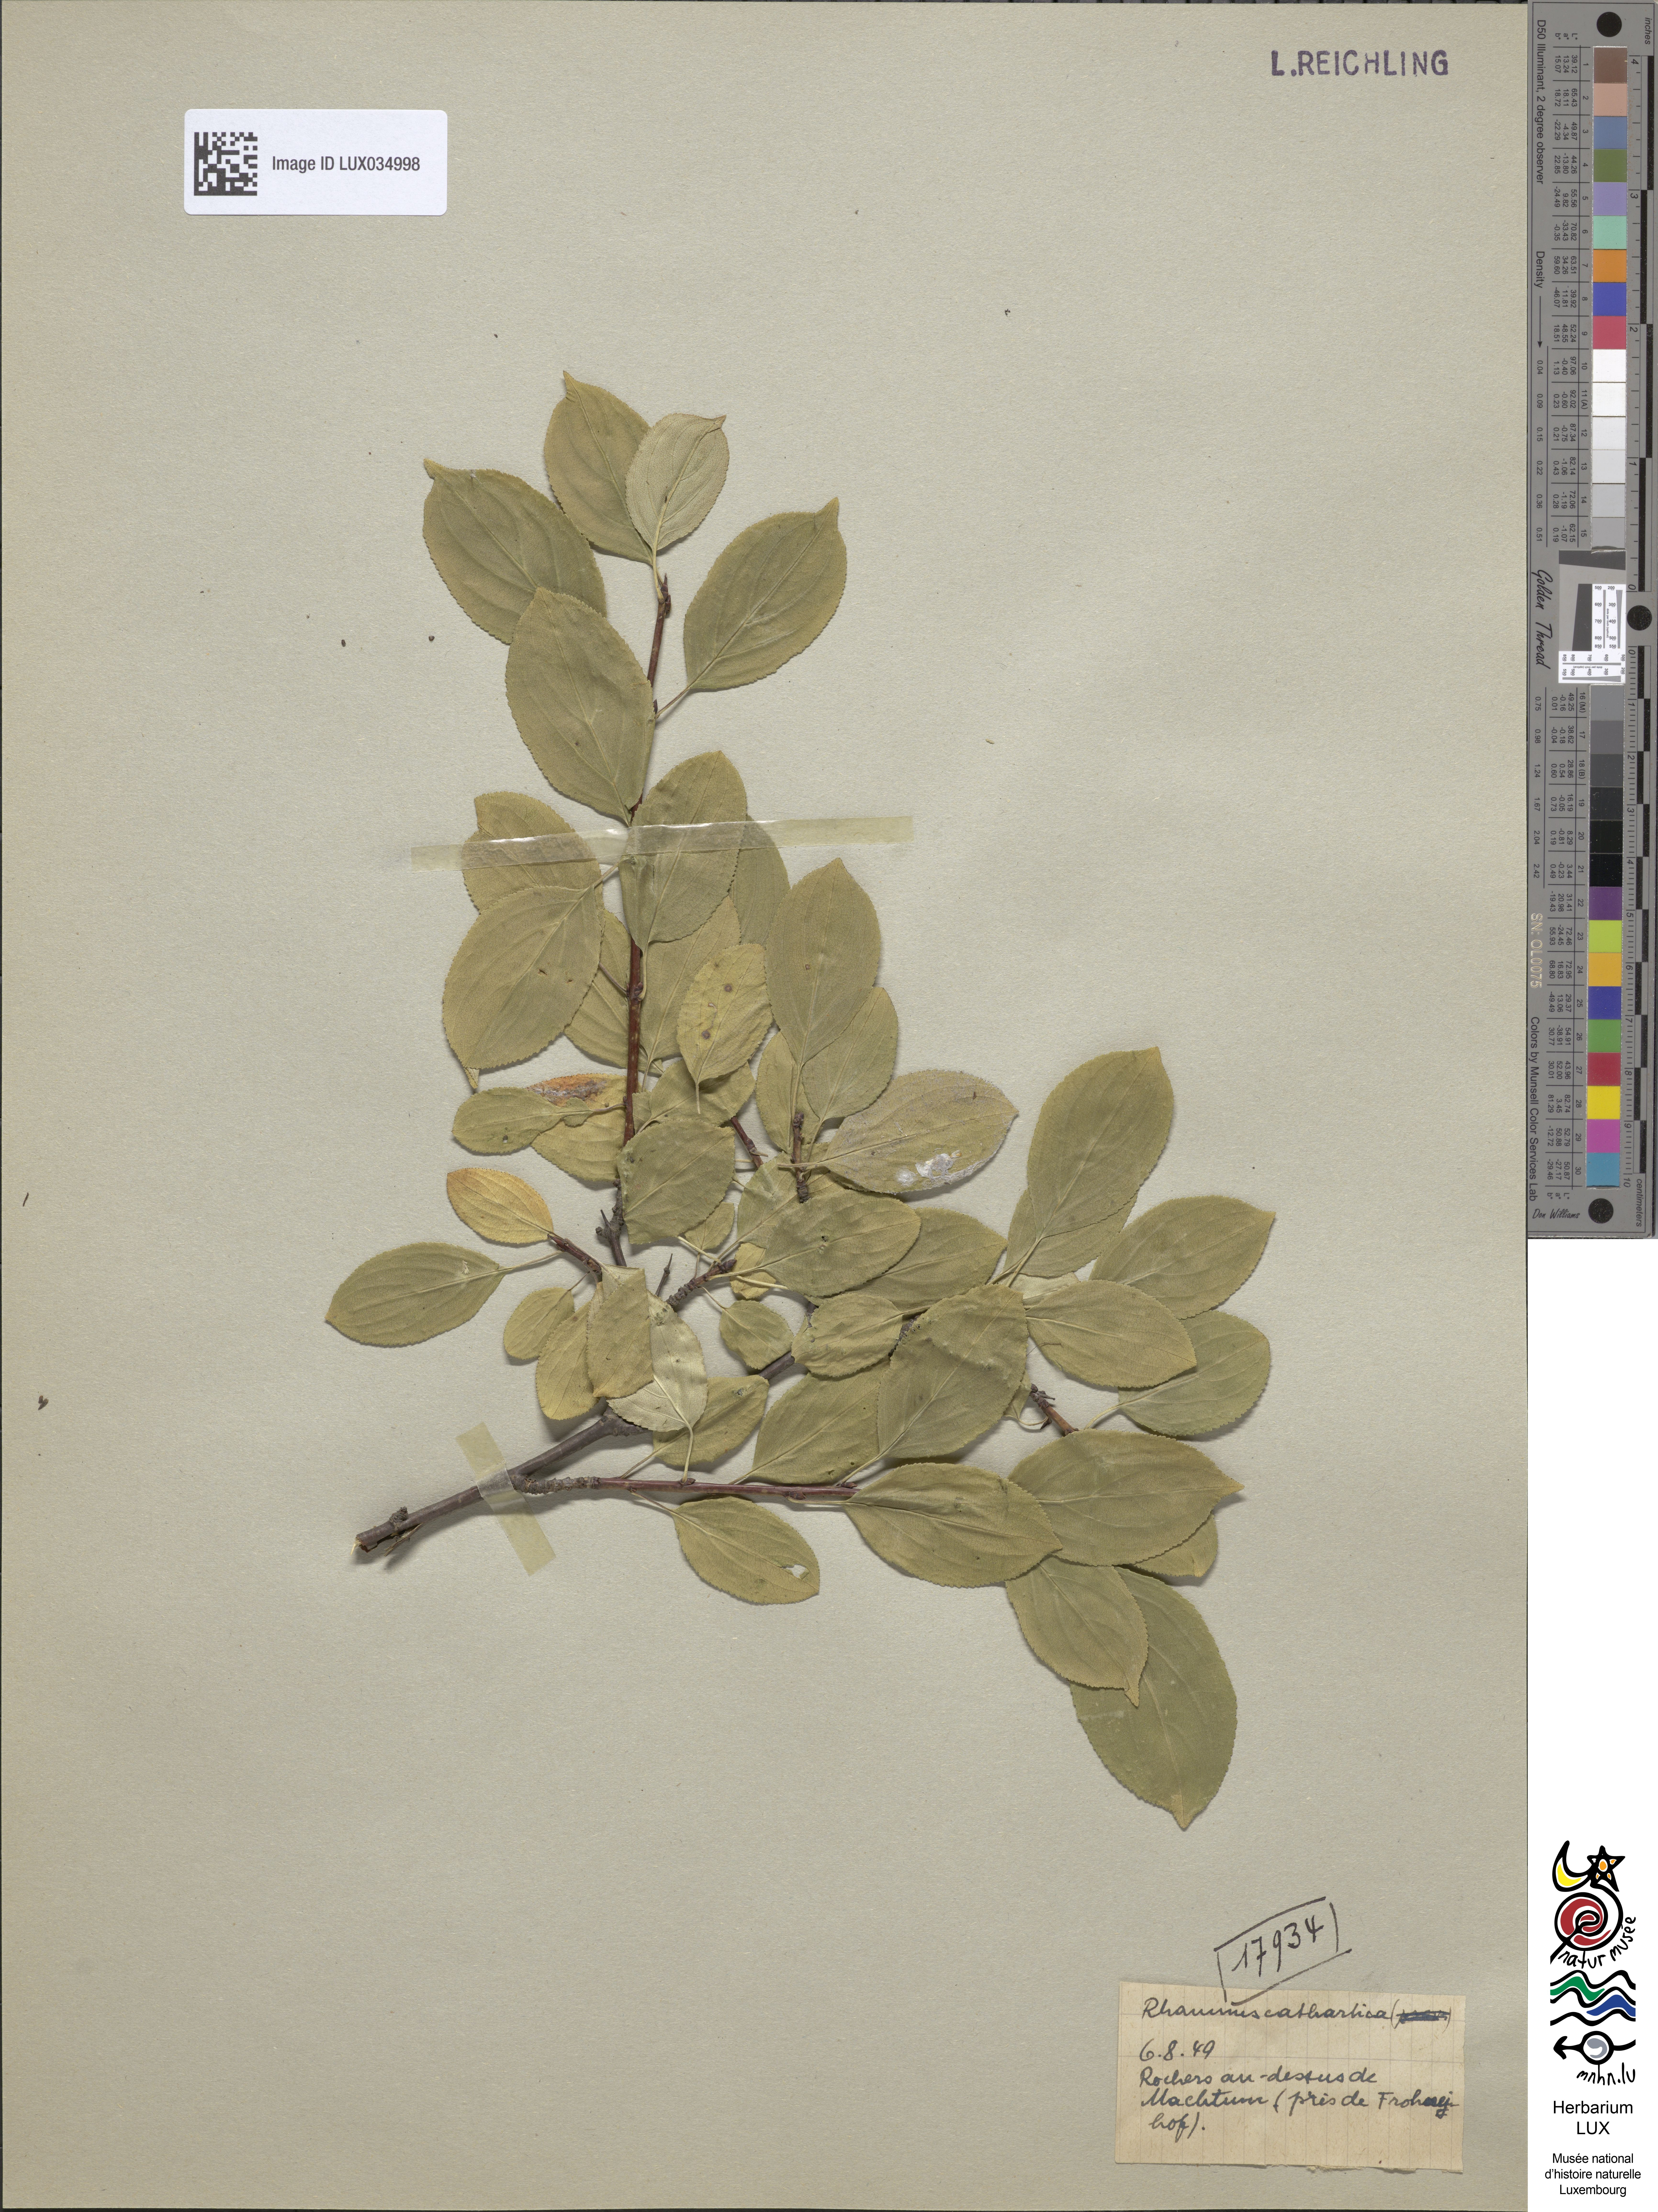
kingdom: Plantae
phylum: Tracheophyta
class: Magnoliopsida
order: Rosales
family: Rhamnaceae
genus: Rhamnus
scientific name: Rhamnus cathartica
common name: Common buckthorn
